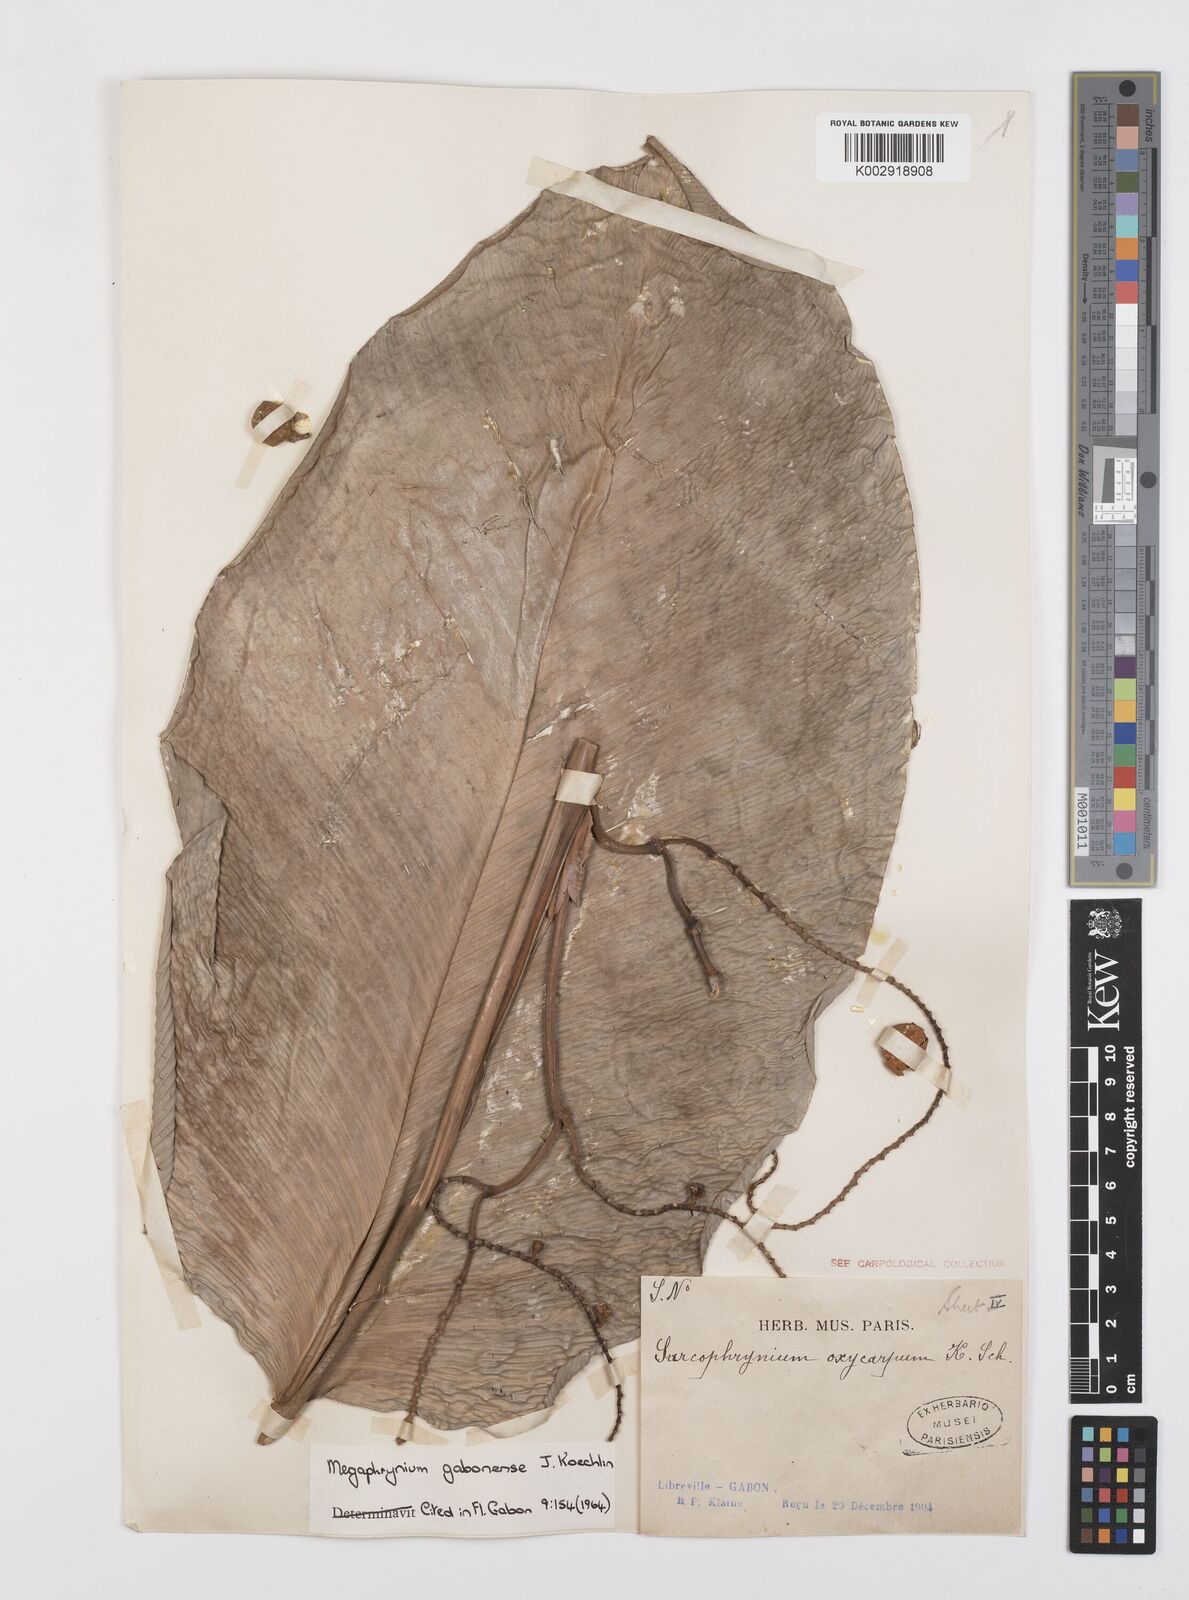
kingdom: Plantae
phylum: Tracheophyta
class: Liliopsida
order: Zingiberales
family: Marantaceae
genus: Megaphrynium
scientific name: Megaphrynium gabonense
